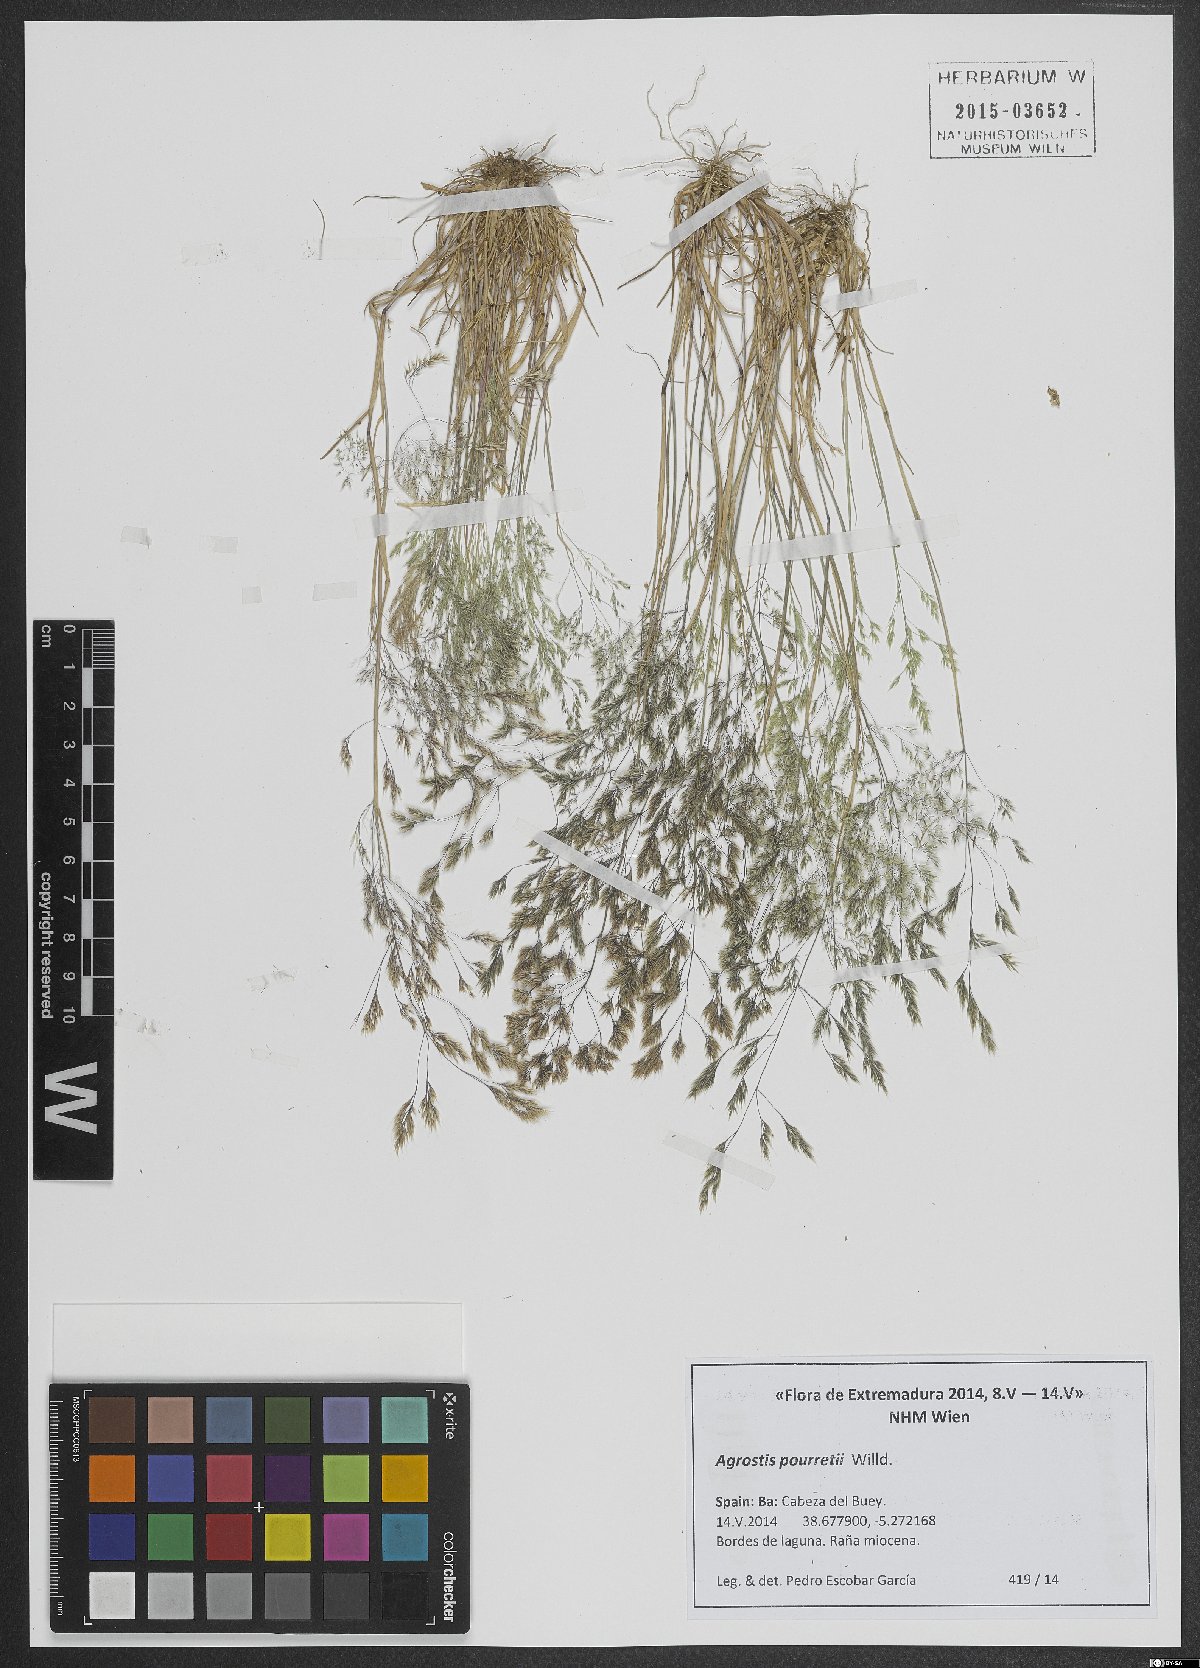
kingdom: Plantae
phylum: Tracheophyta
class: Liliopsida
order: Poales
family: Poaceae
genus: Agrostis
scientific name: Agrostis pourretii
